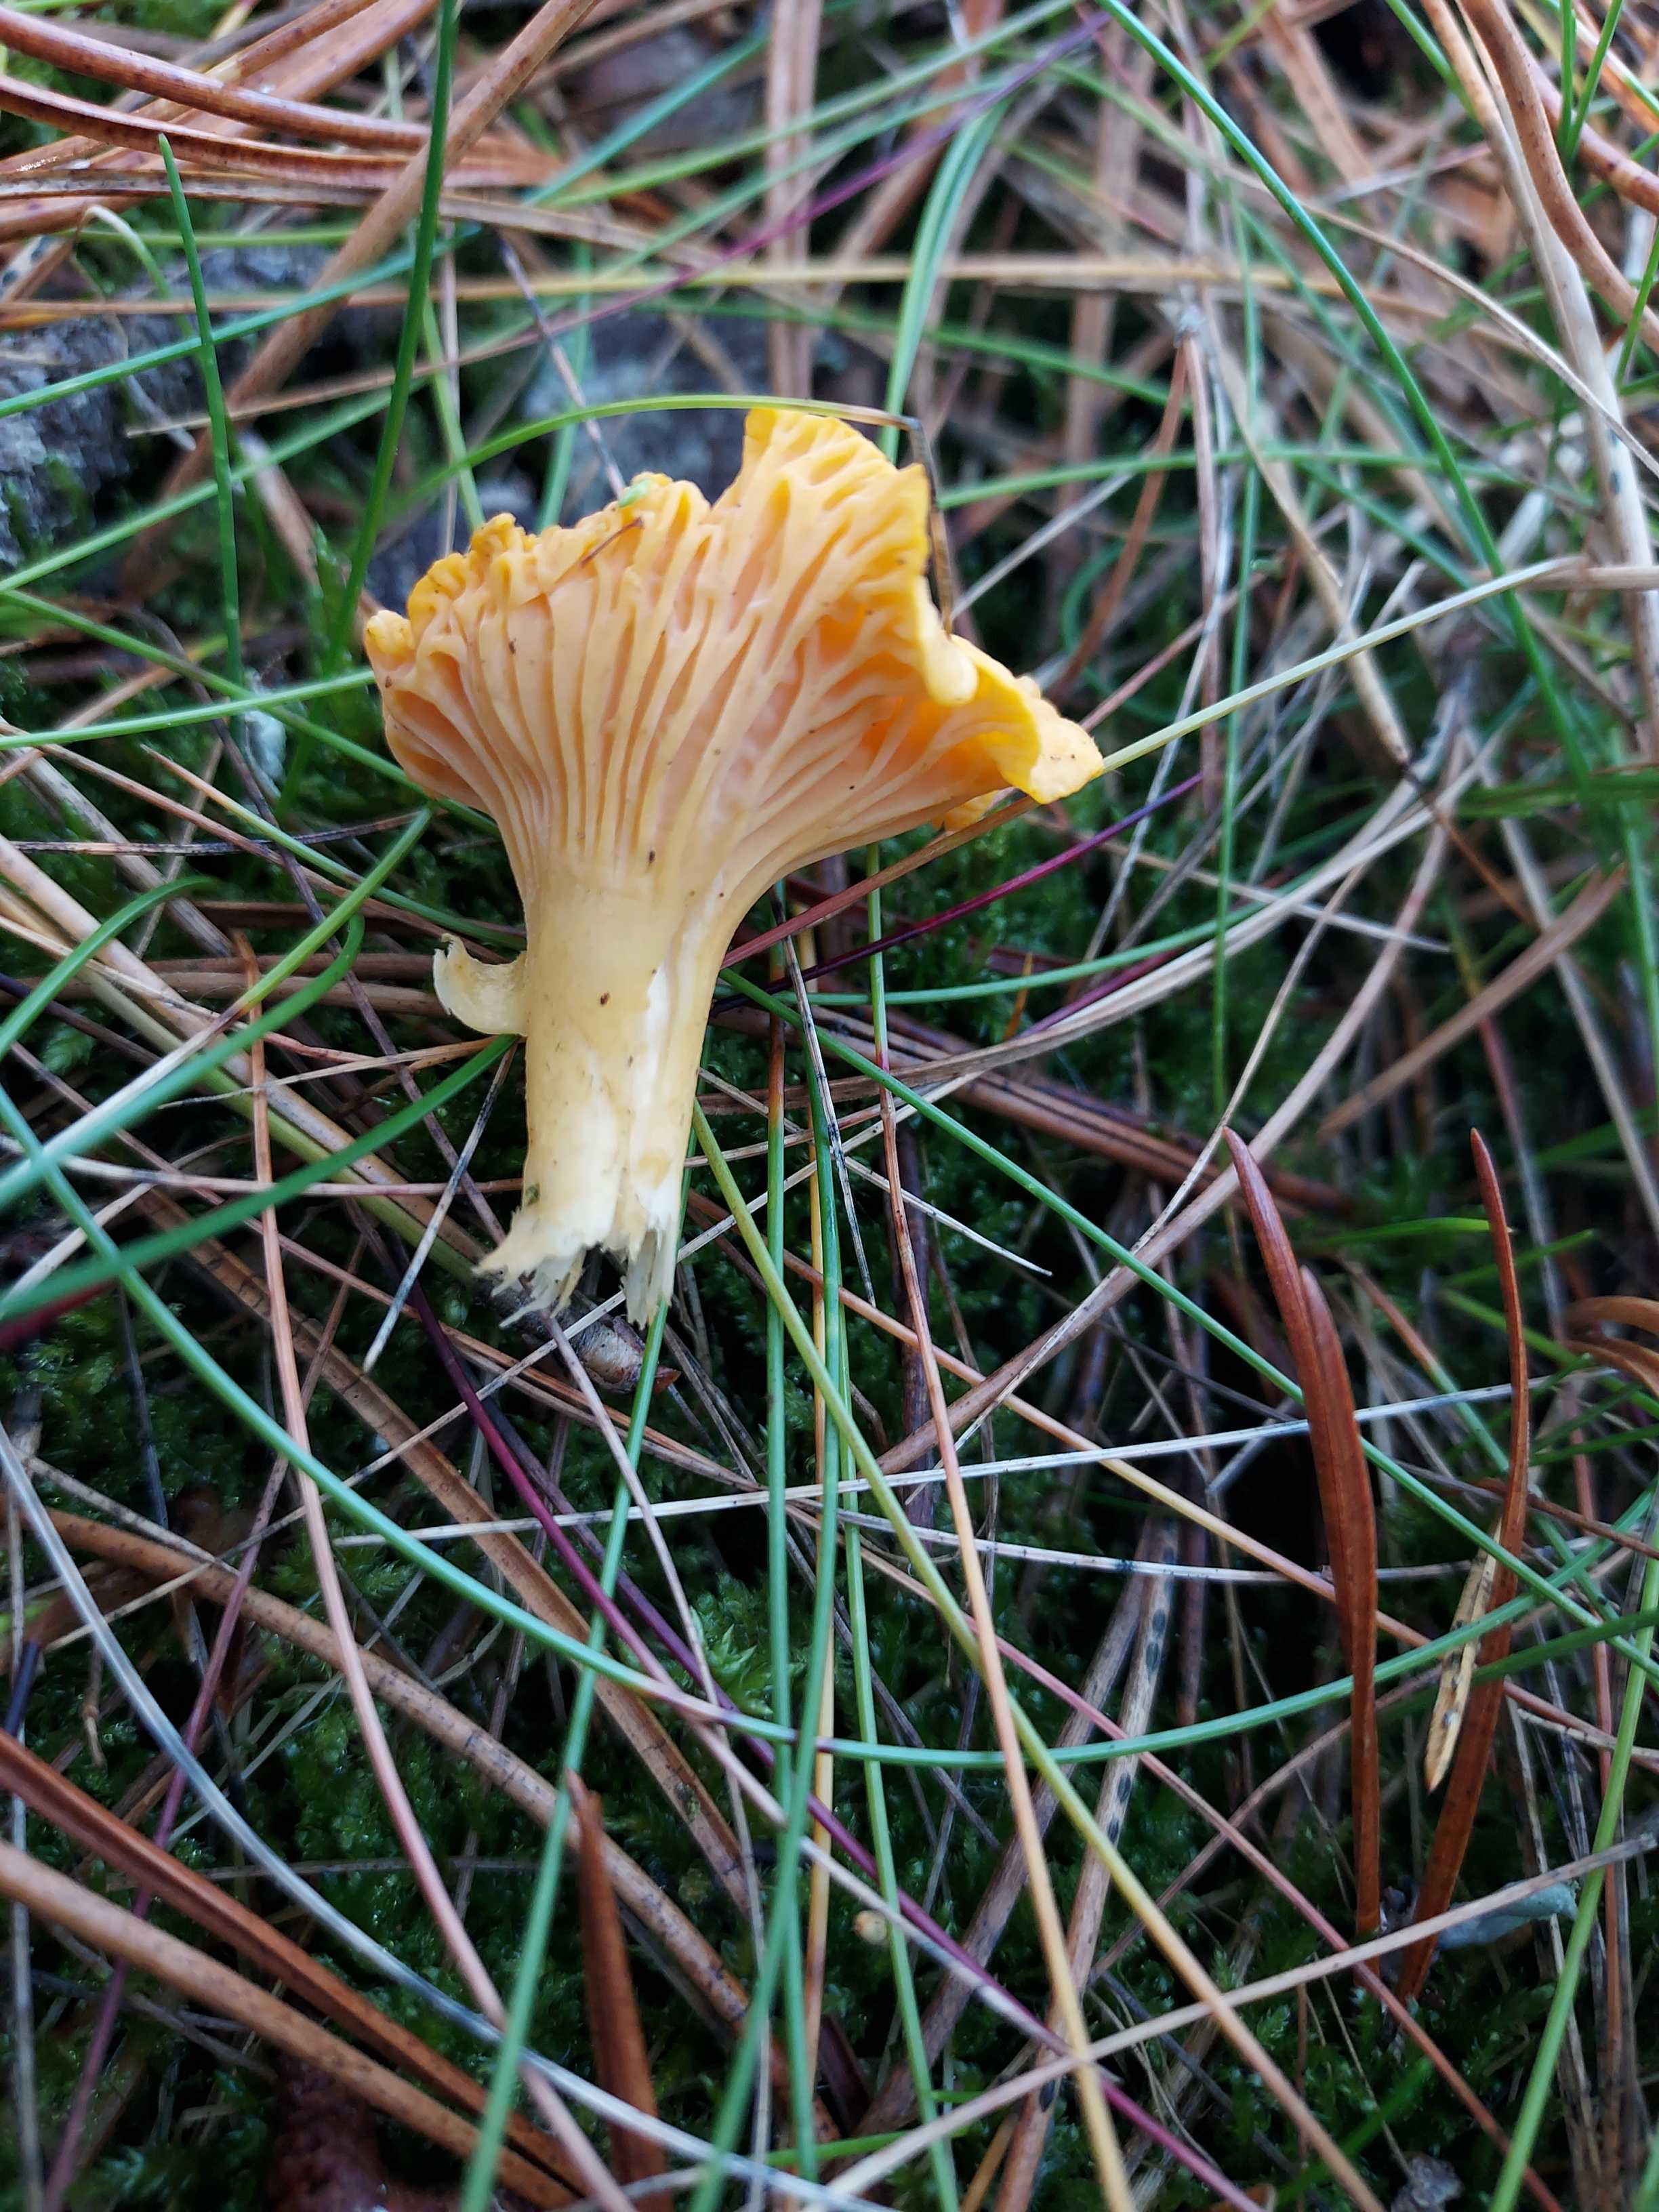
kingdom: Fungi
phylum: Basidiomycota
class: Agaricomycetes
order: Cantharellales
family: Hydnaceae
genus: Cantharellus
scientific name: Cantharellus cibarius
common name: almindelig kantarel
